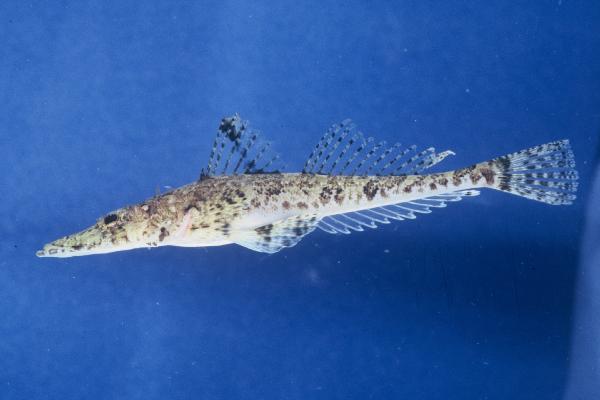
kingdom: Animalia
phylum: Chordata
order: Scorpaeniformes
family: Platycephalidae
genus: Papilloculiceps
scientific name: Papilloculiceps longiceps
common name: Tentacled flathead
